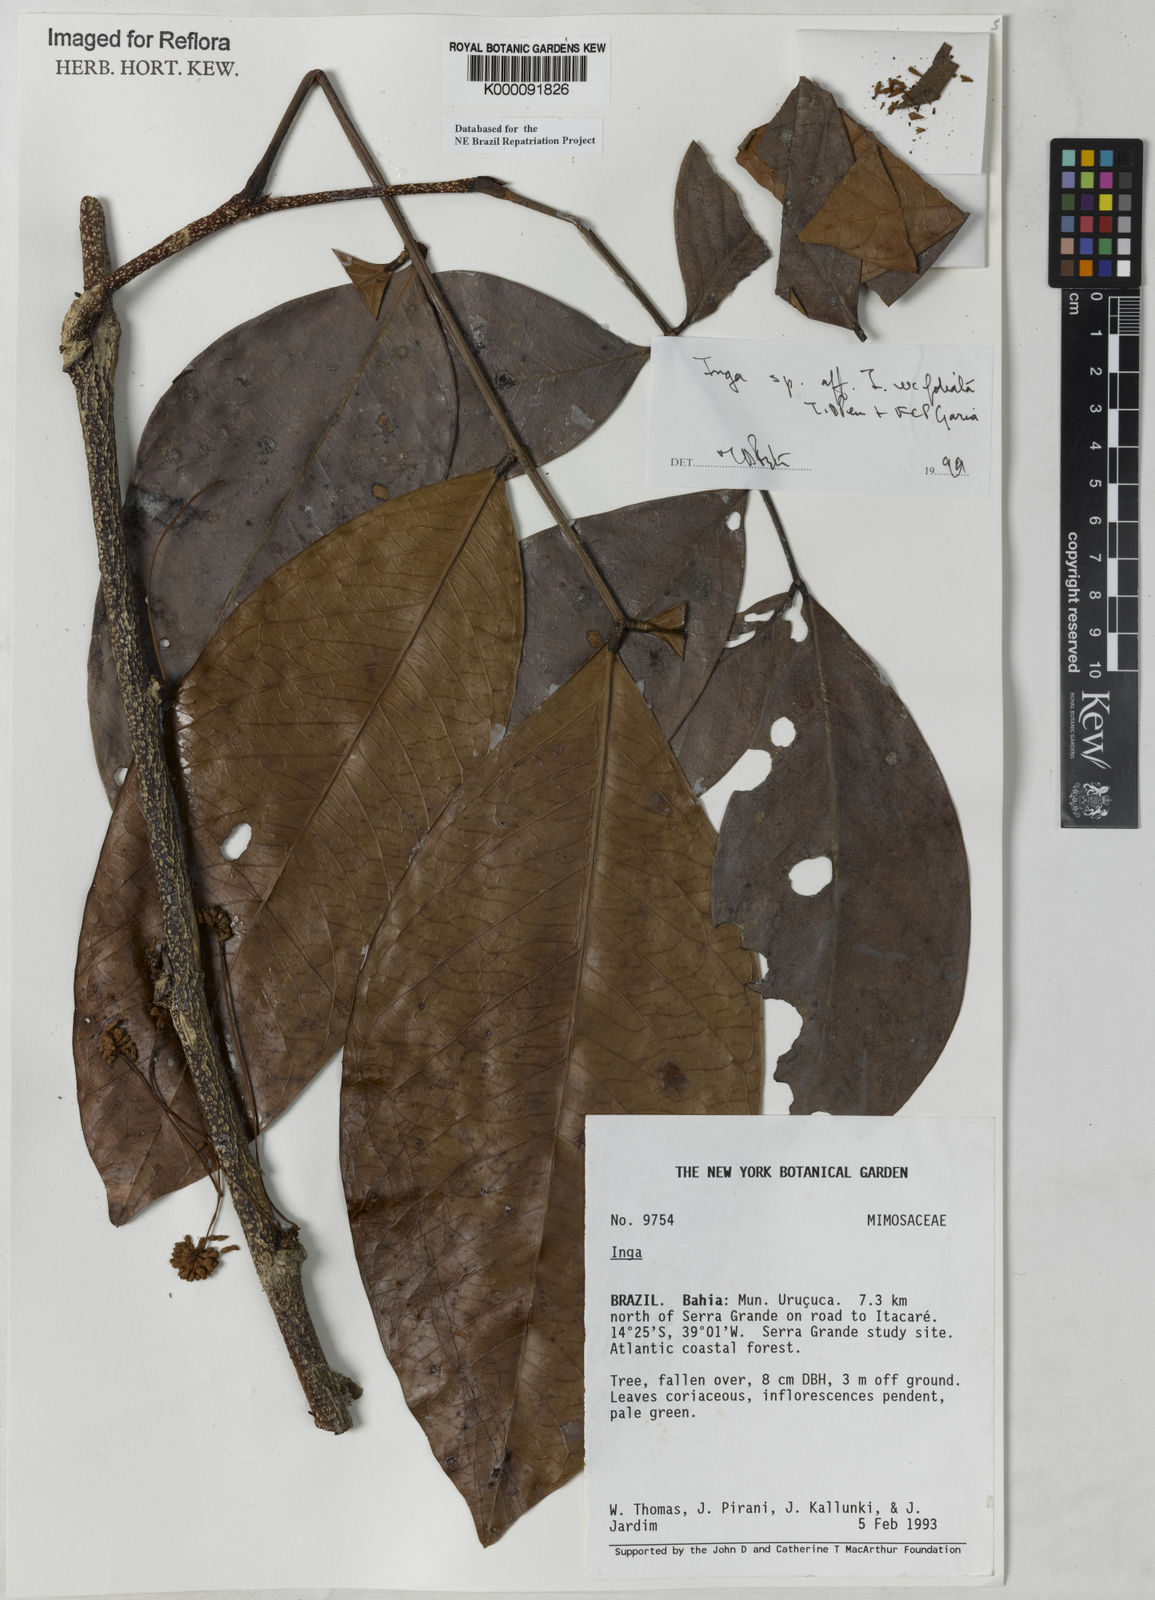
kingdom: Plantae
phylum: Tracheophyta
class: Magnoliopsida
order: Fabales
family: Fabaceae
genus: Inga
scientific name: Inga
